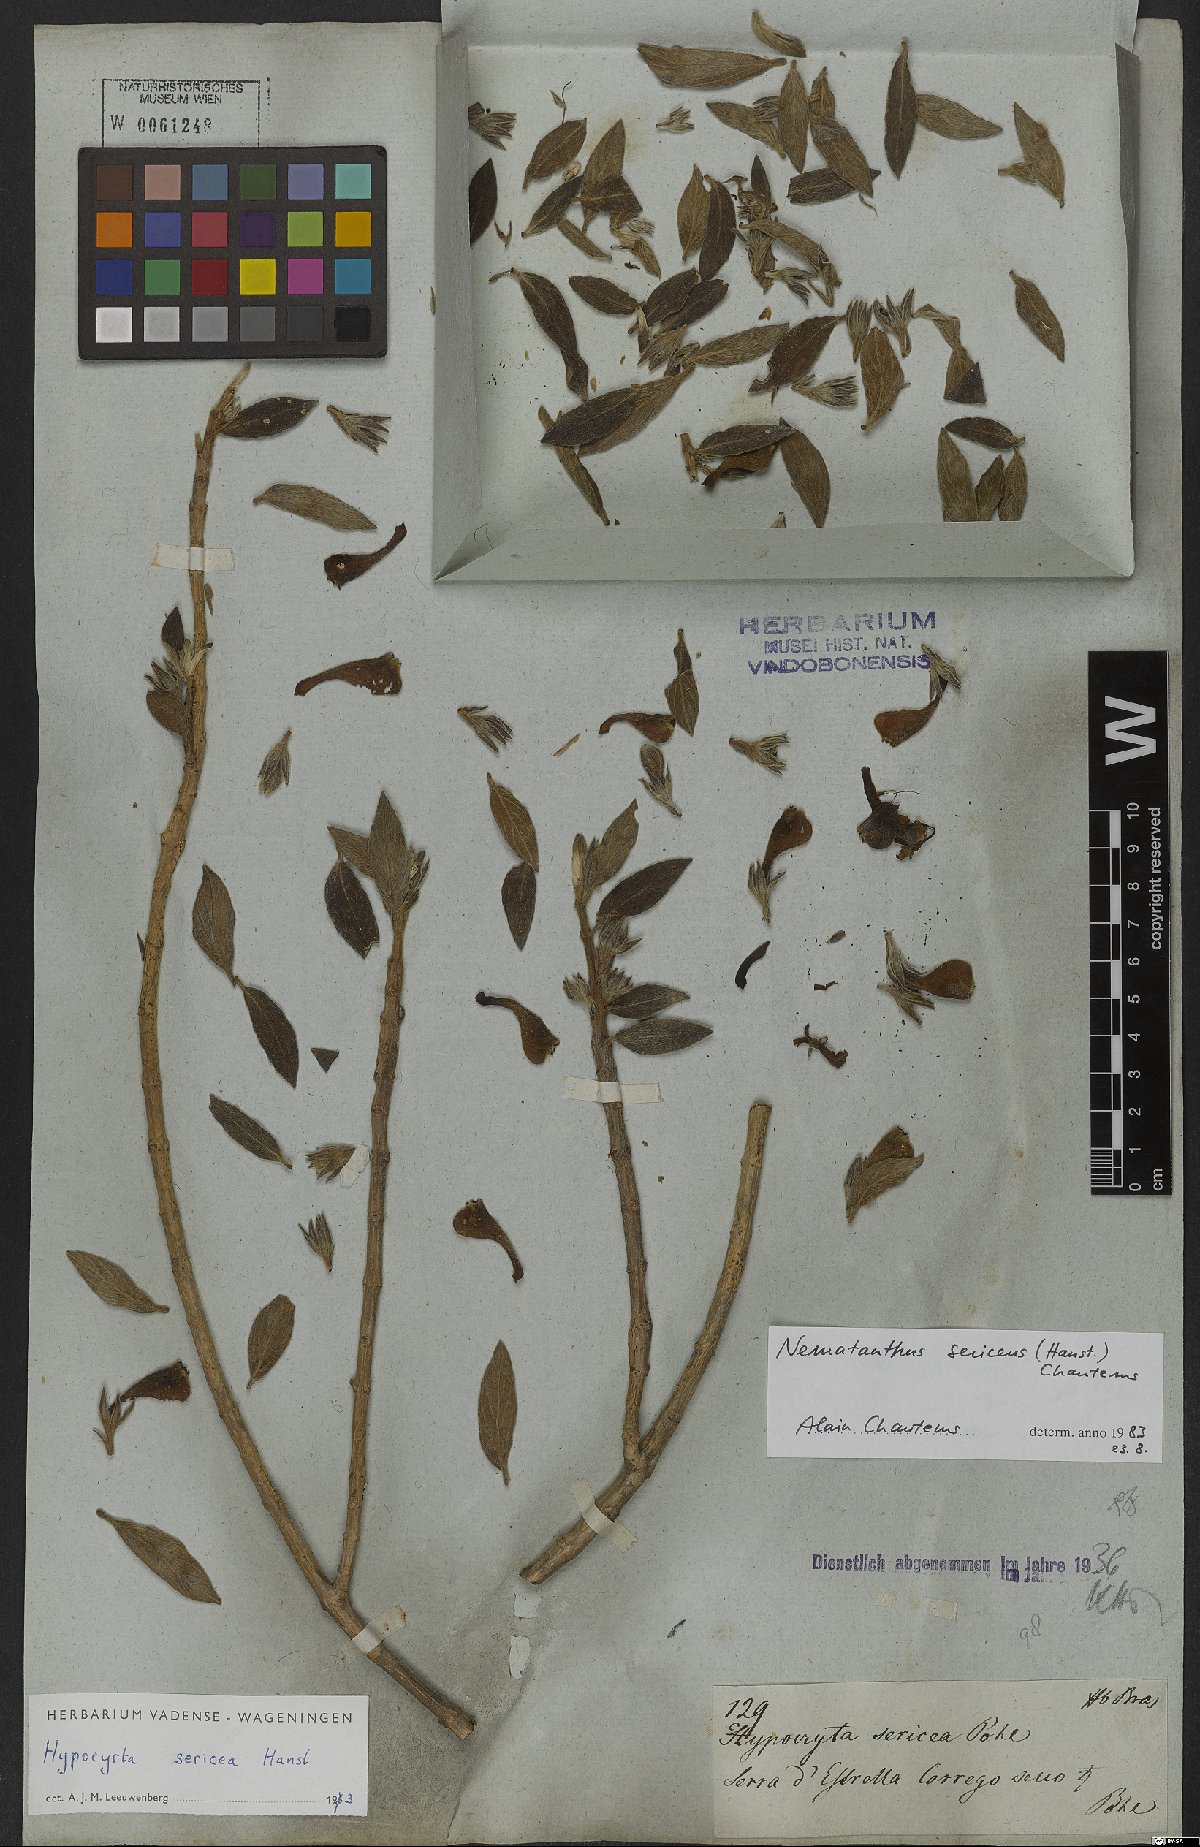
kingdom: Plantae
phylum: Tracheophyta
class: Magnoliopsida
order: Lamiales
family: Gesneriaceae
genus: Nematanthus
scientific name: Nematanthus sericeus
